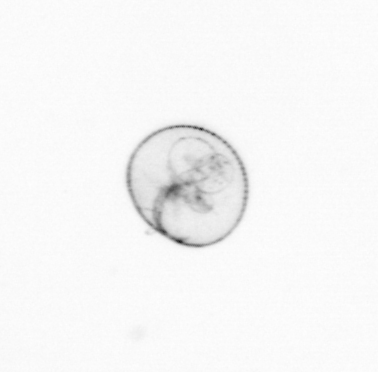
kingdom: Chromista
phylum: Myzozoa
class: Dinophyceae
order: Noctilucales
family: Noctilucaceae
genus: Noctiluca
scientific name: Noctiluca scintillans
